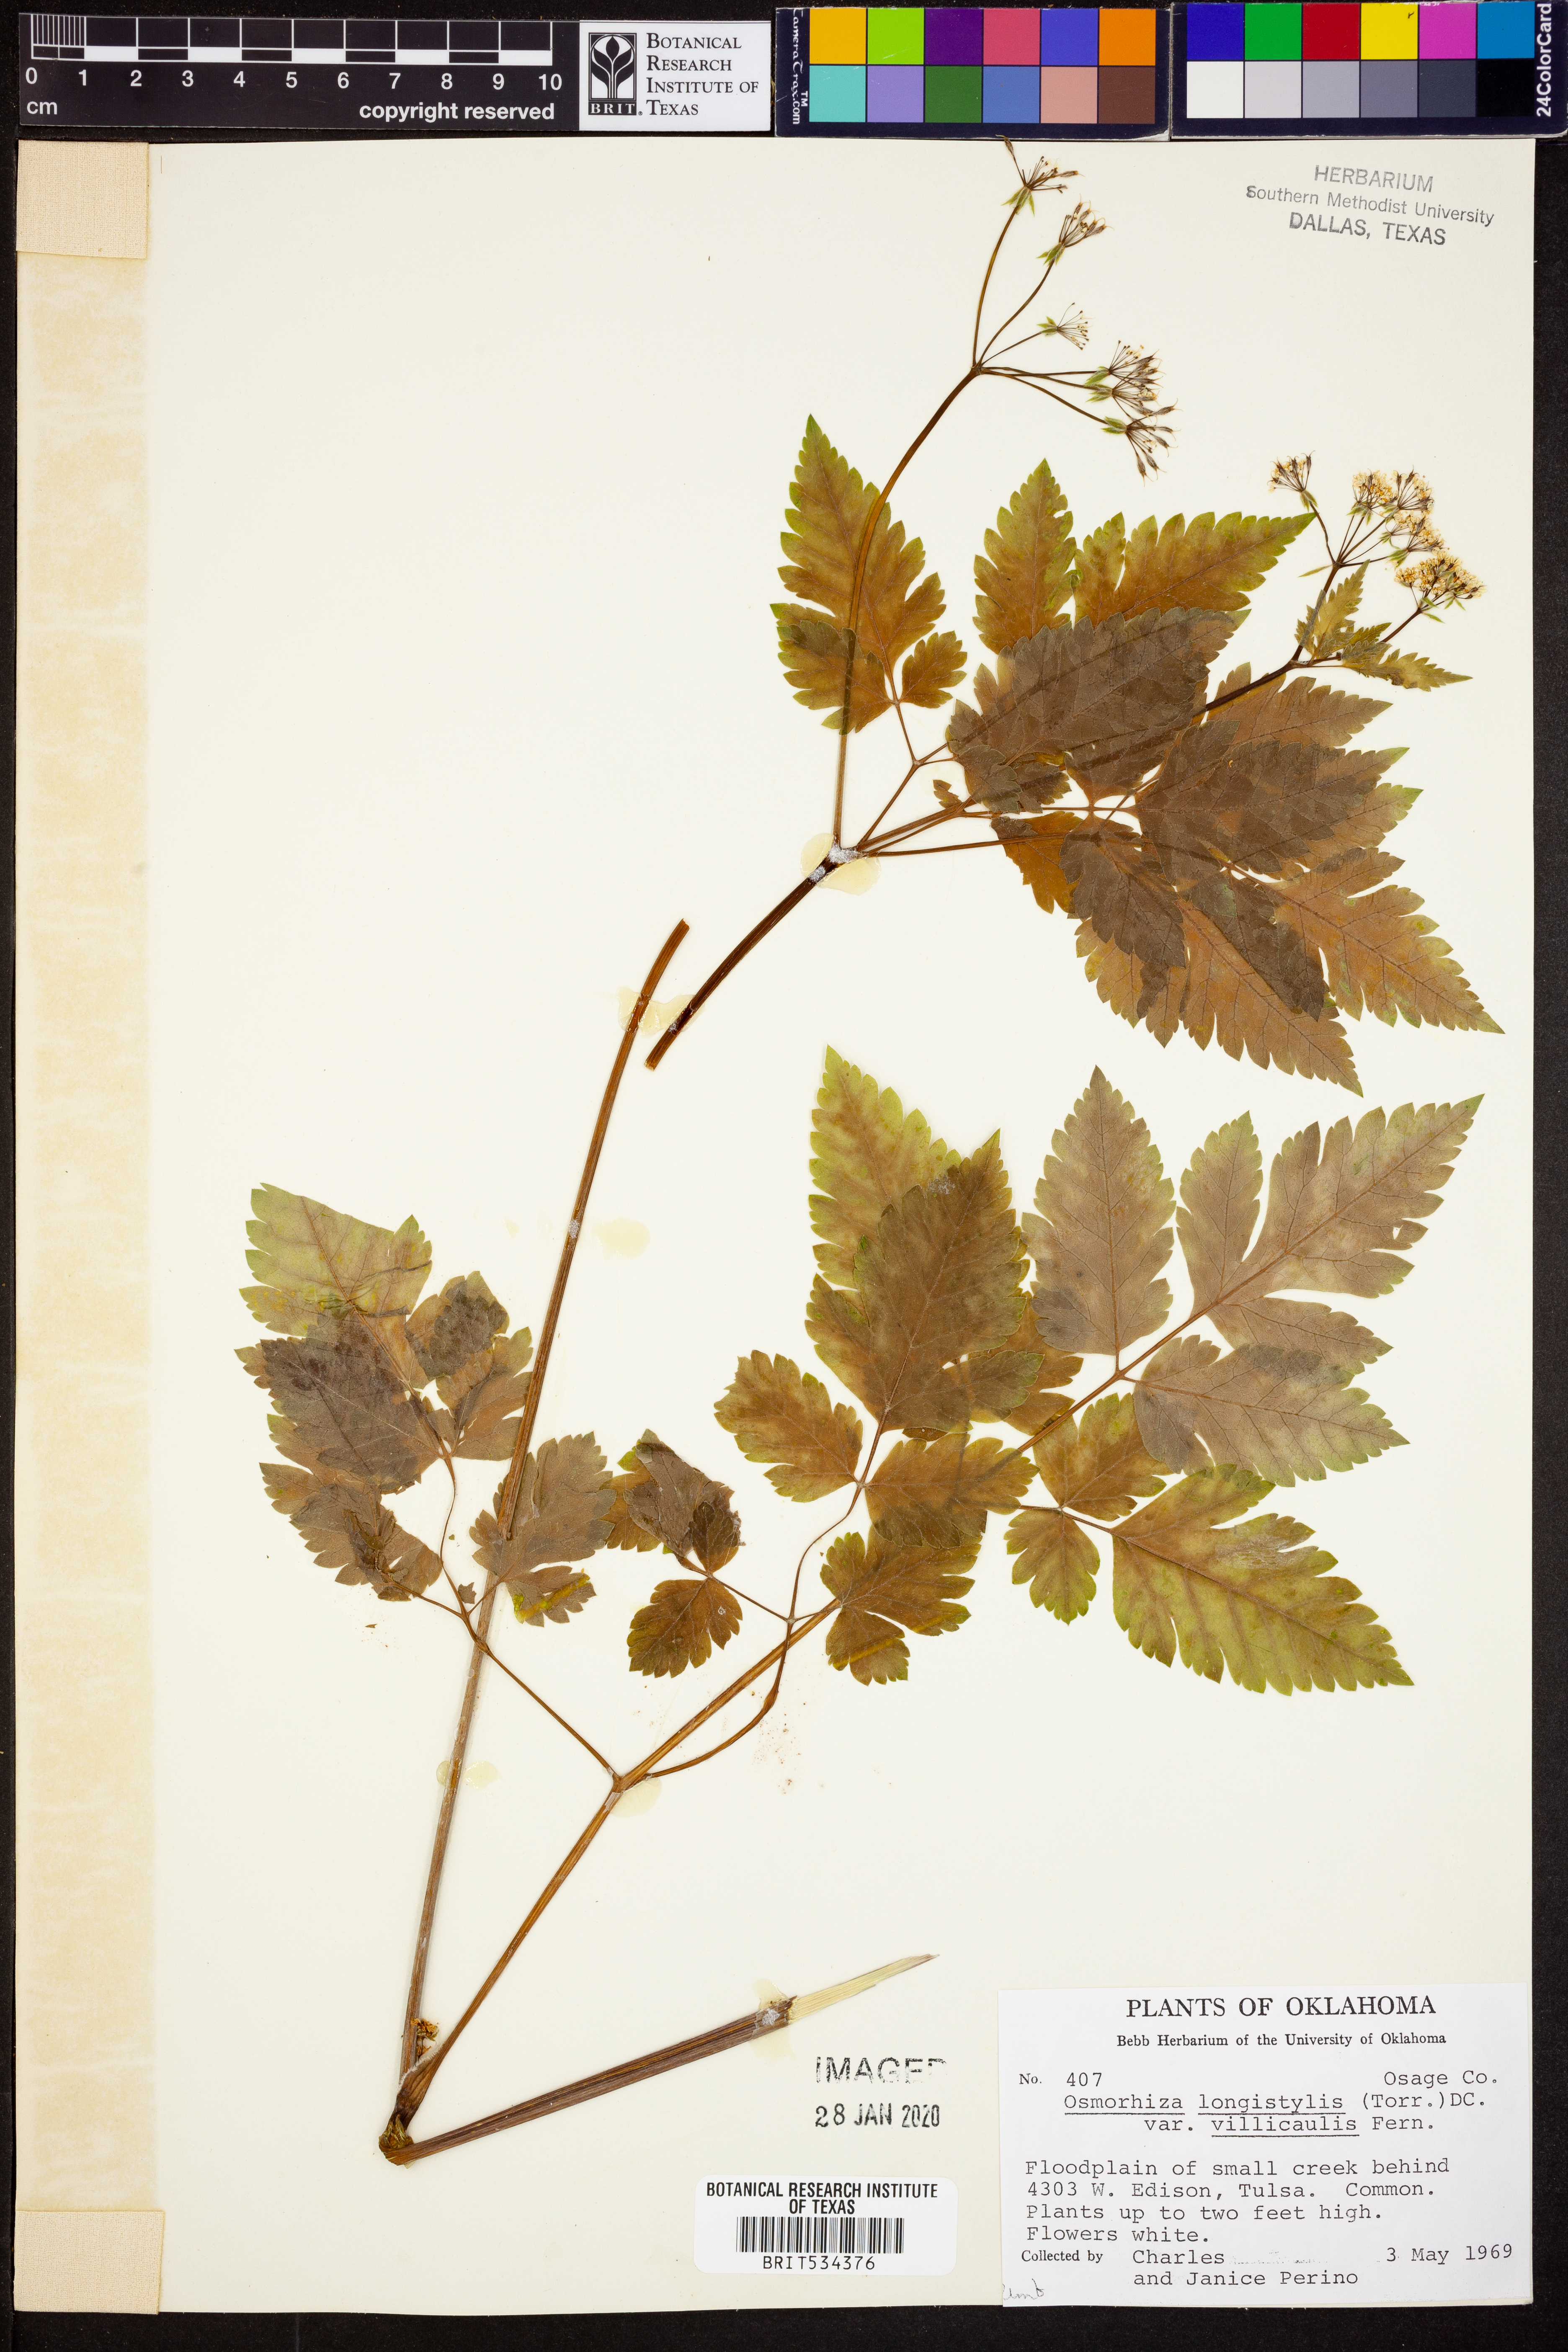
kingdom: Plantae
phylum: Tracheophyta
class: Magnoliopsida
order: Apiales
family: Apiaceae
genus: Osmorhiza
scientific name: Osmorhiza longistylis
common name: Smooth sweet cicely
